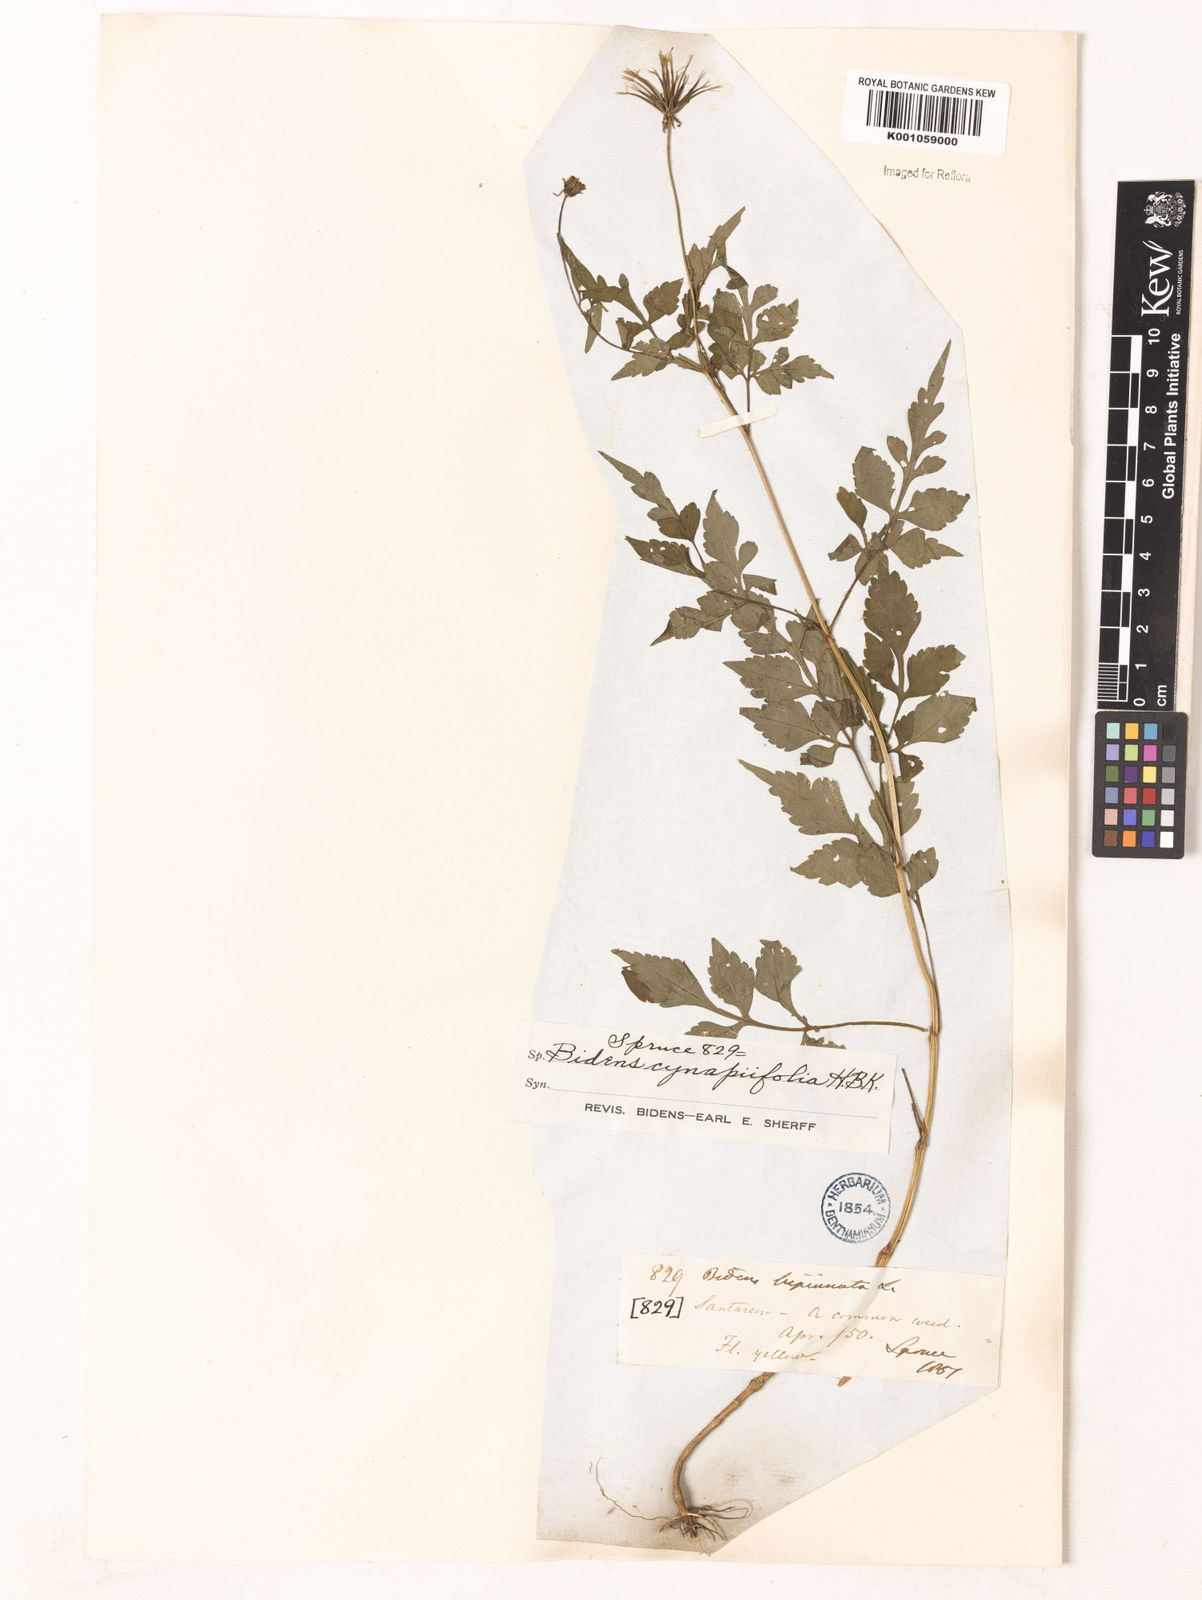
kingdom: Plantae
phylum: Tracheophyta
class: Magnoliopsida
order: Asterales
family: Asteraceae
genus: Bidens
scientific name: Bidens cynapiifolia
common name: Beggar's tick
